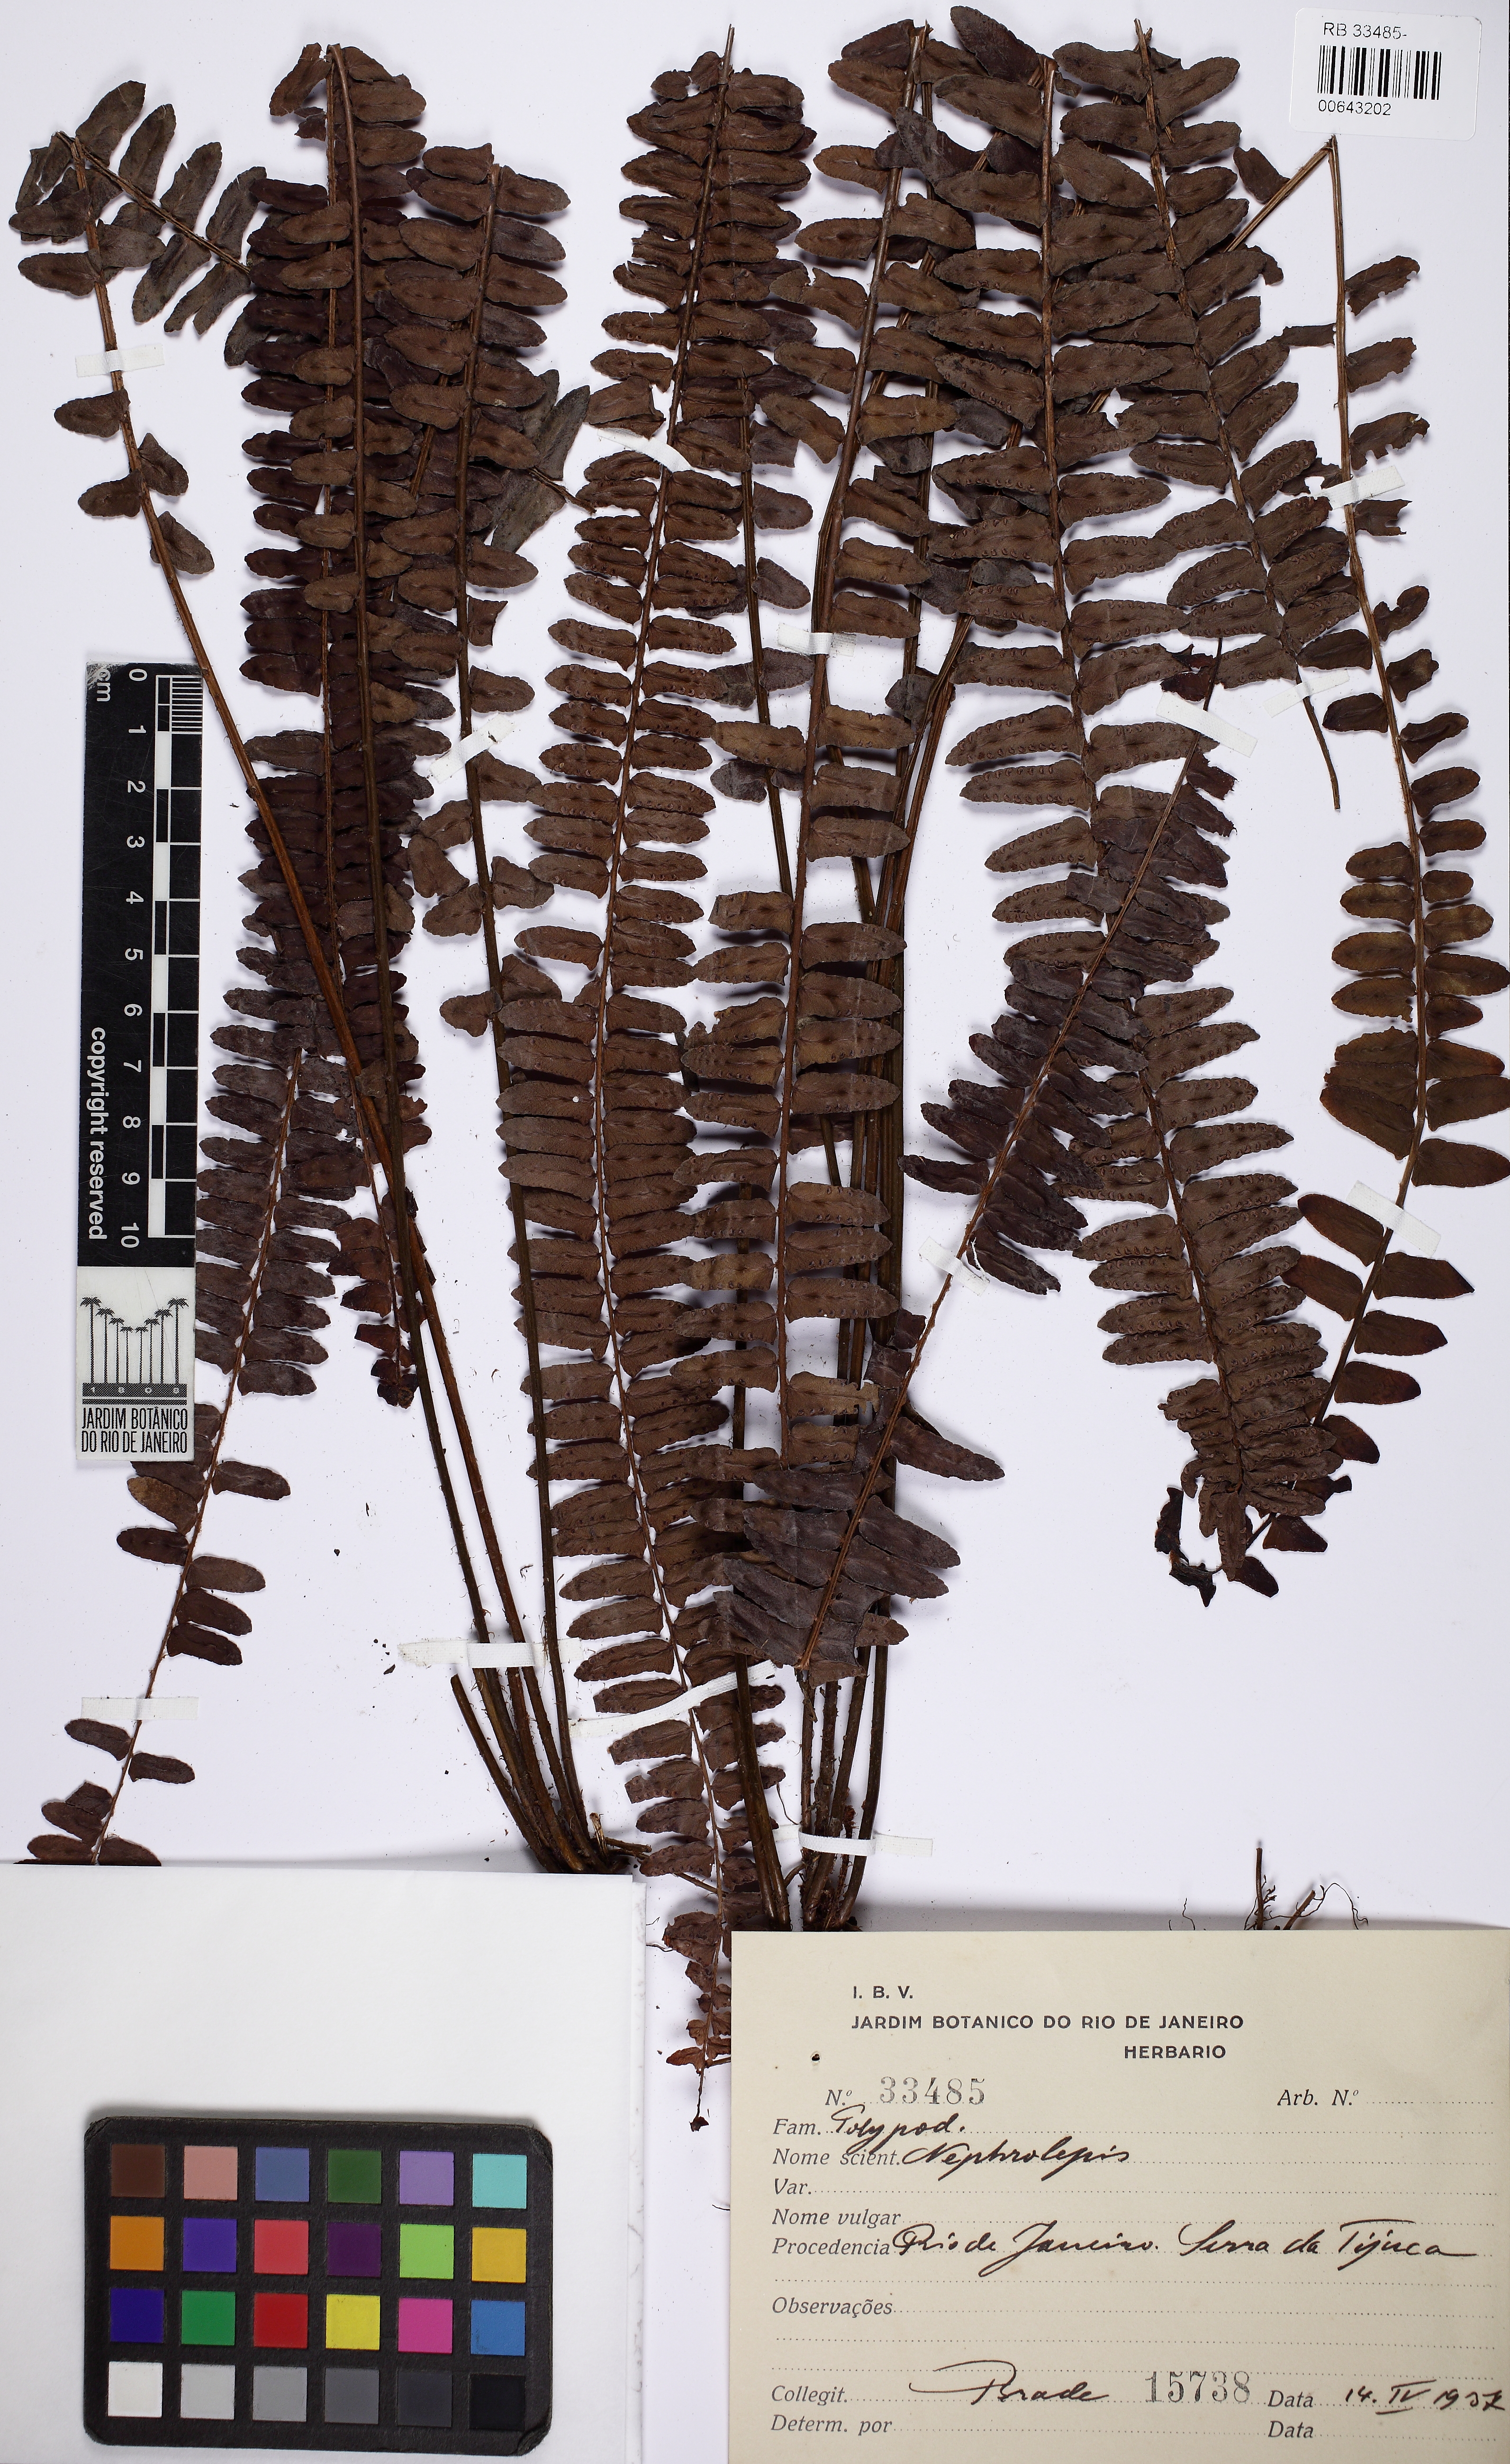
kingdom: Plantae
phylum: Tracheophyta
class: Polypodiopsida
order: Polypodiales
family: Nephrolepidaceae
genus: Nephrolepis
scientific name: Nephrolepis cordifolia
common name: Narrow swordfern
